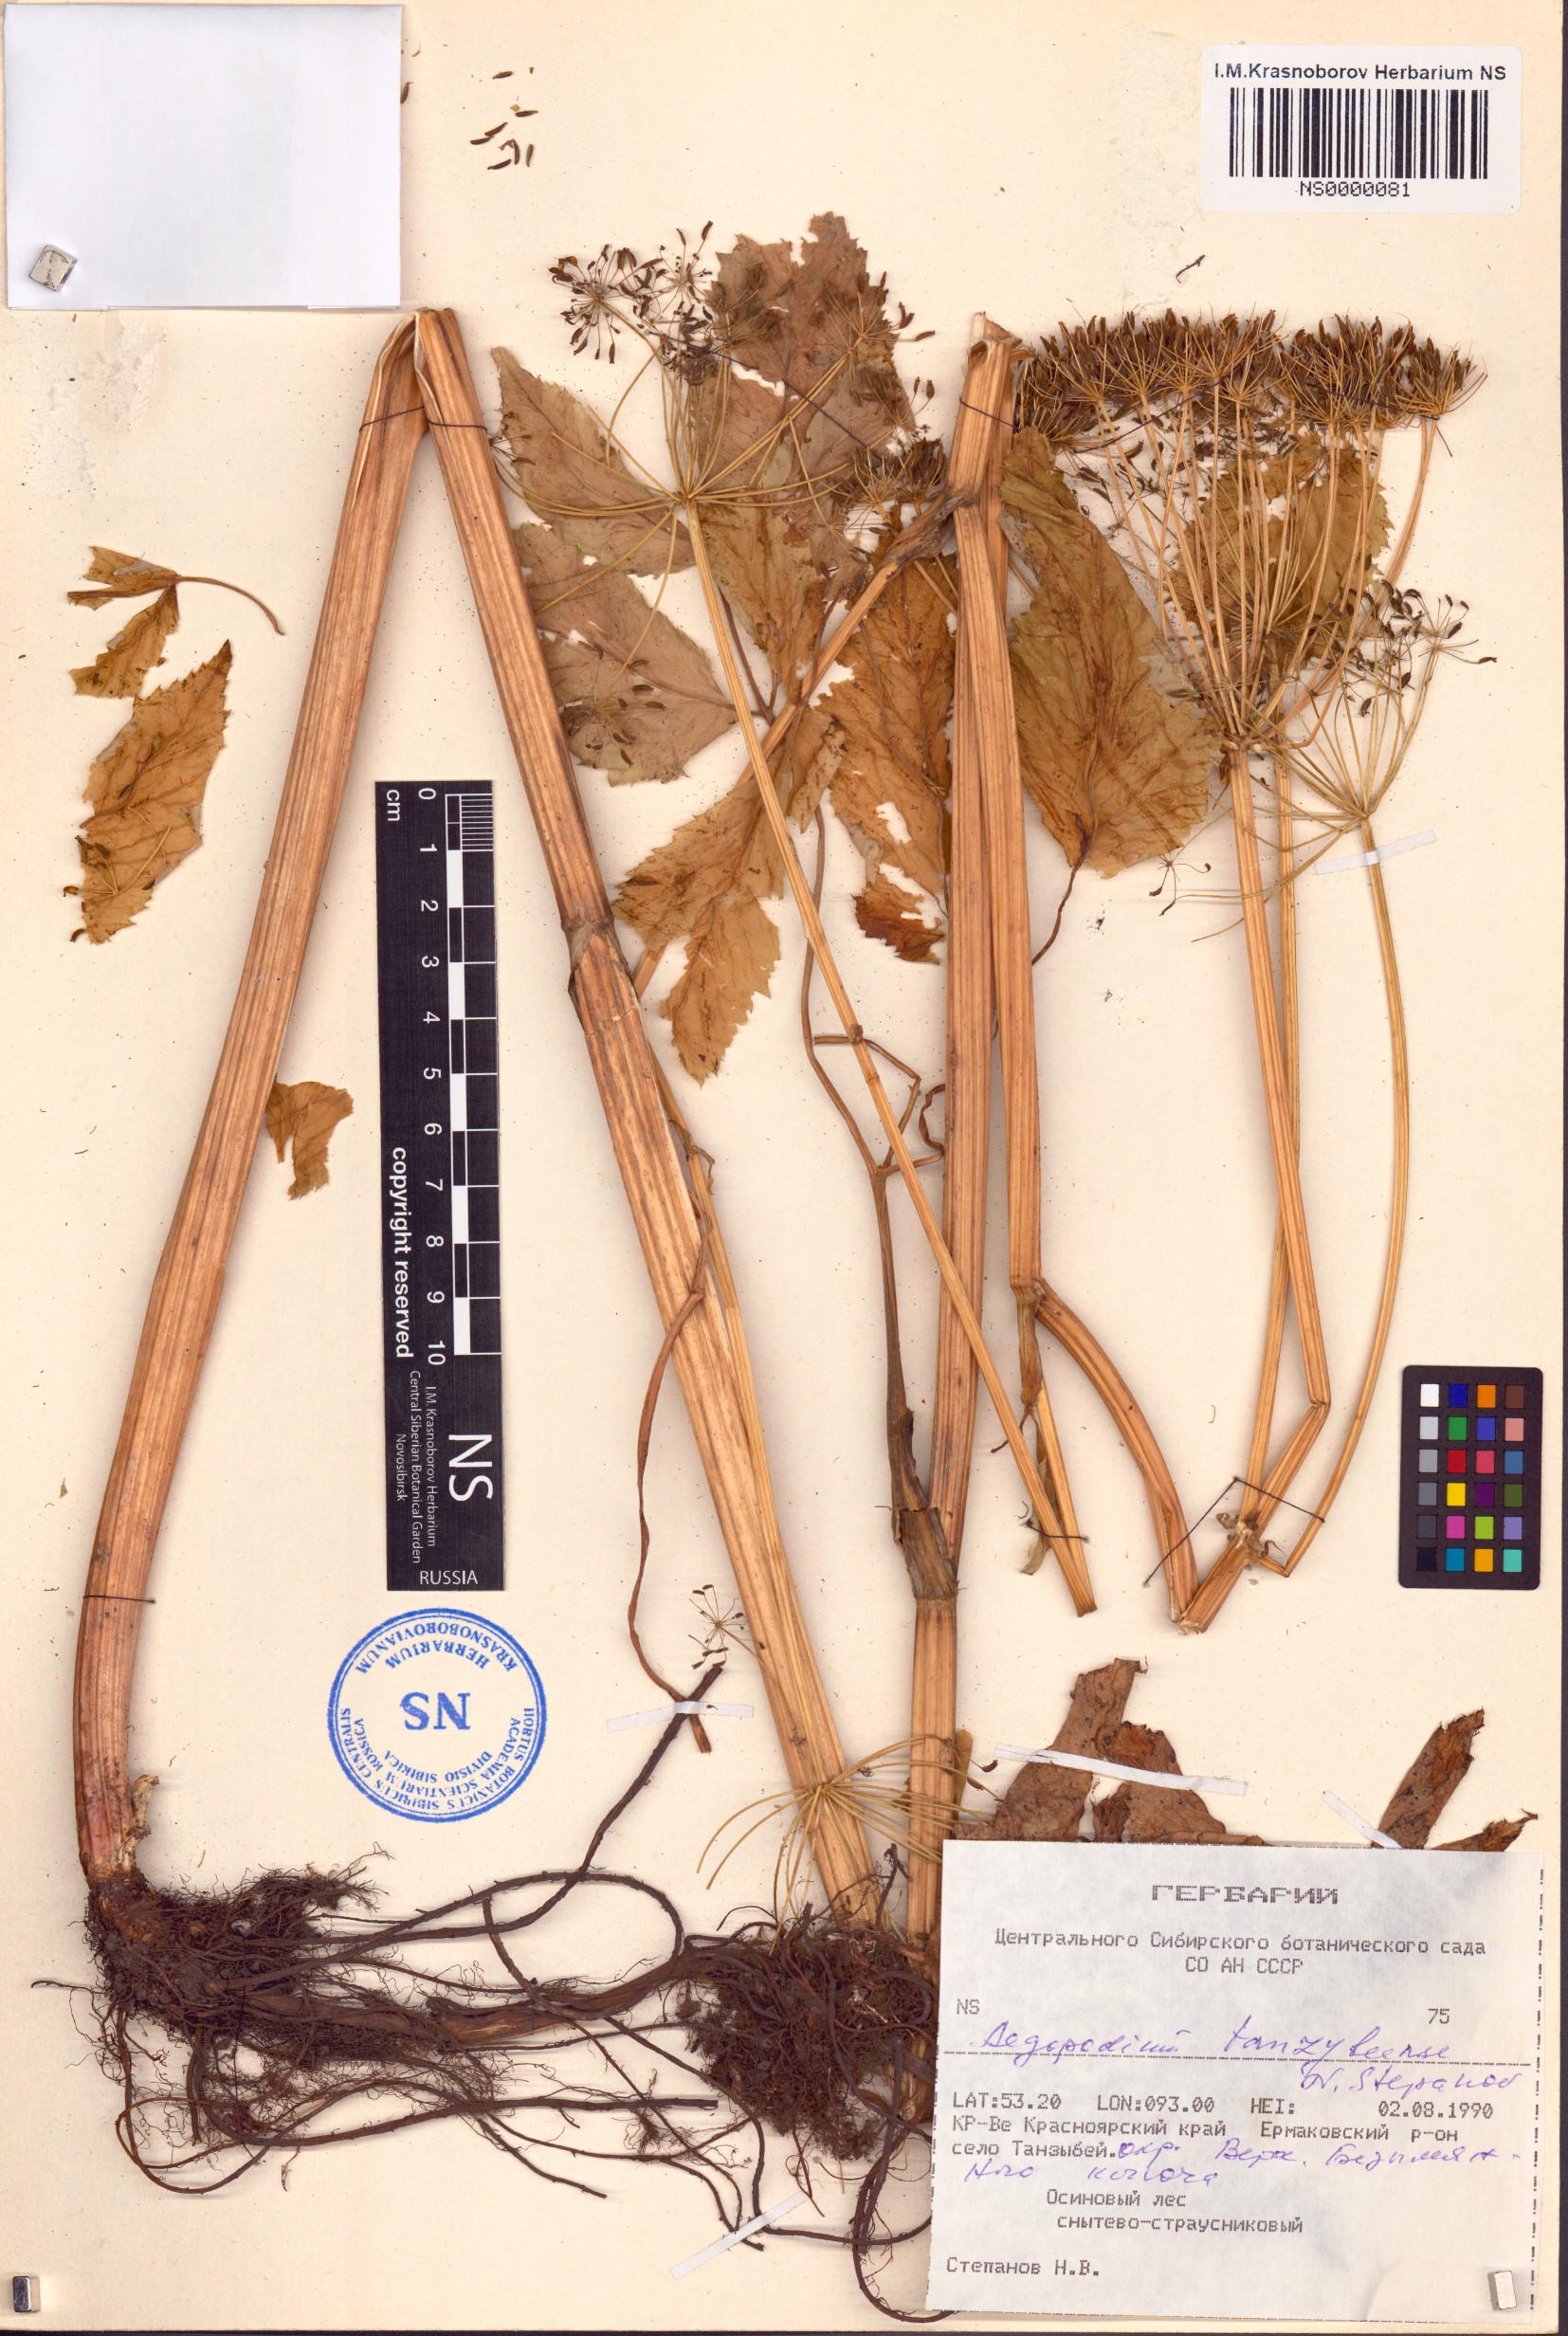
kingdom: Plantae
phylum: Tracheophyta
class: Magnoliopsida
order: Apiales
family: Apiaceae
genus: Aegopodium
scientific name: Aegopodium
